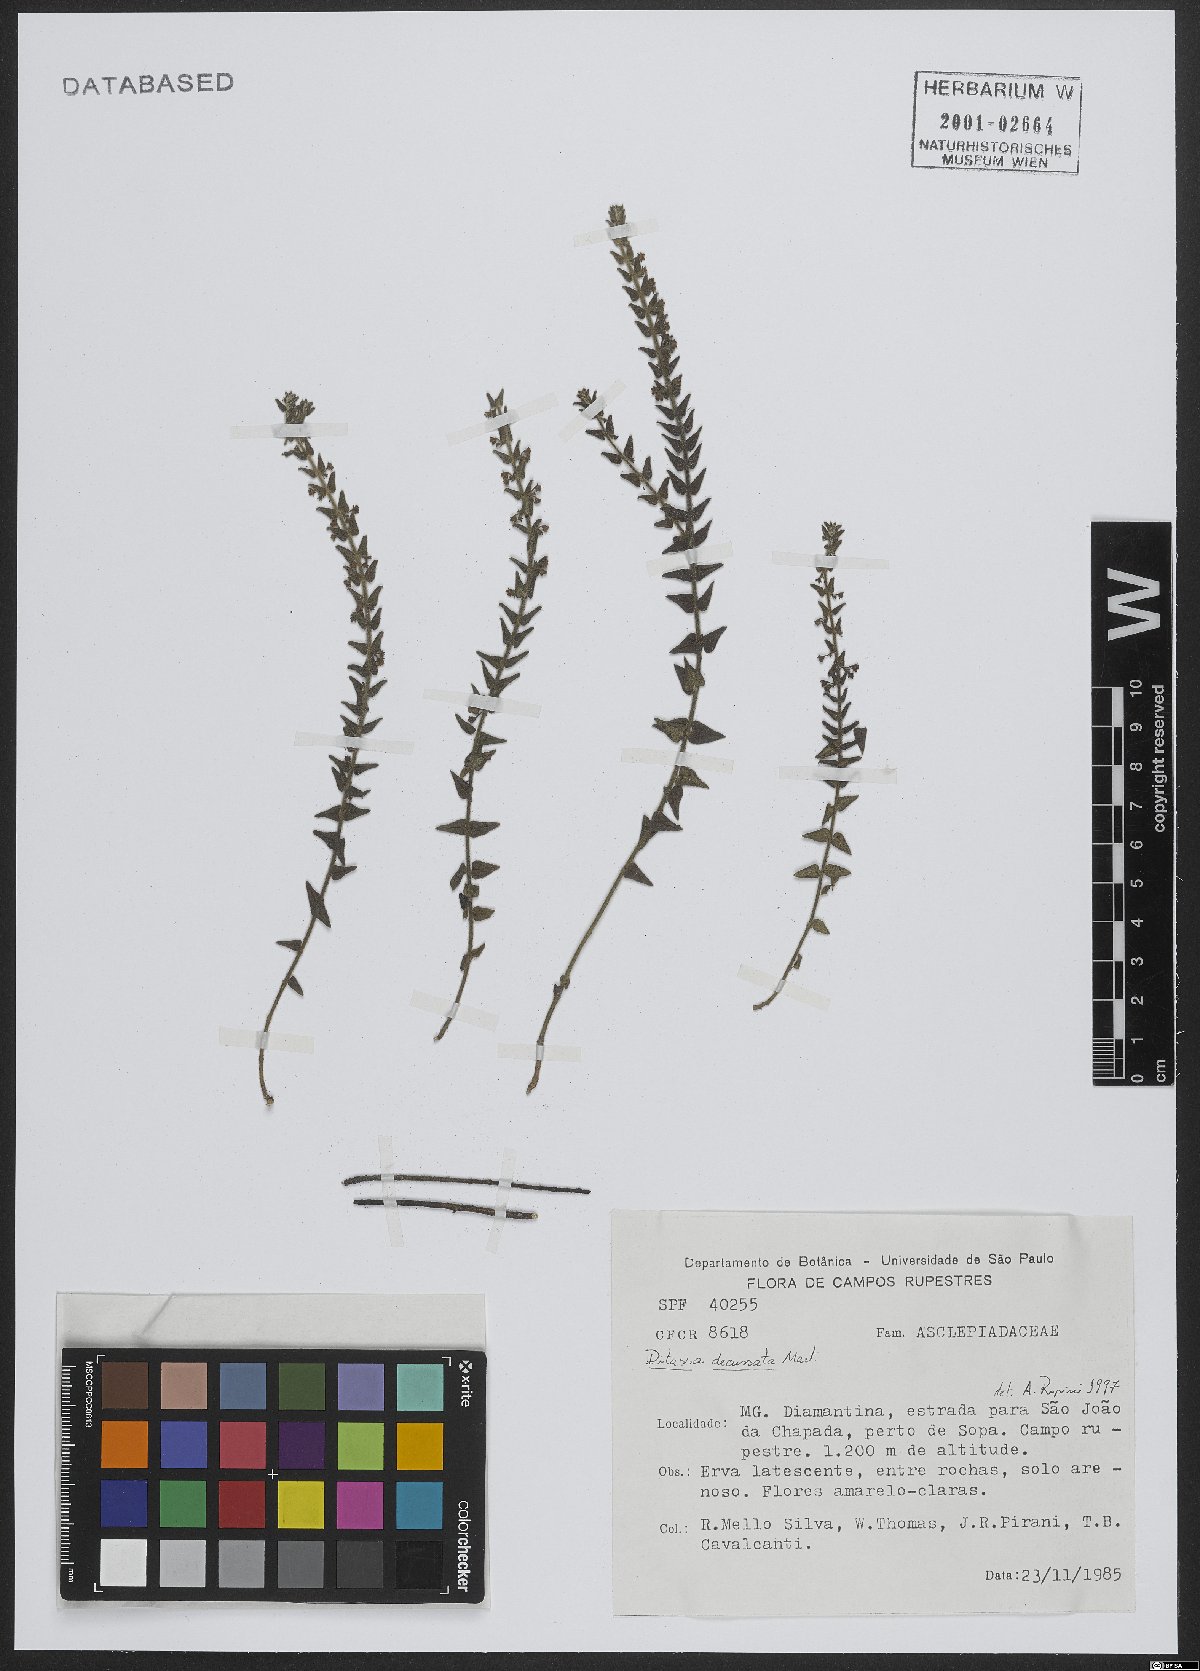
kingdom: Plantae
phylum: Tracheophyta
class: Magnoliopsida
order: Gentianales
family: Apocynaceae
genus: Minaria
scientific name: Minaria decussata
